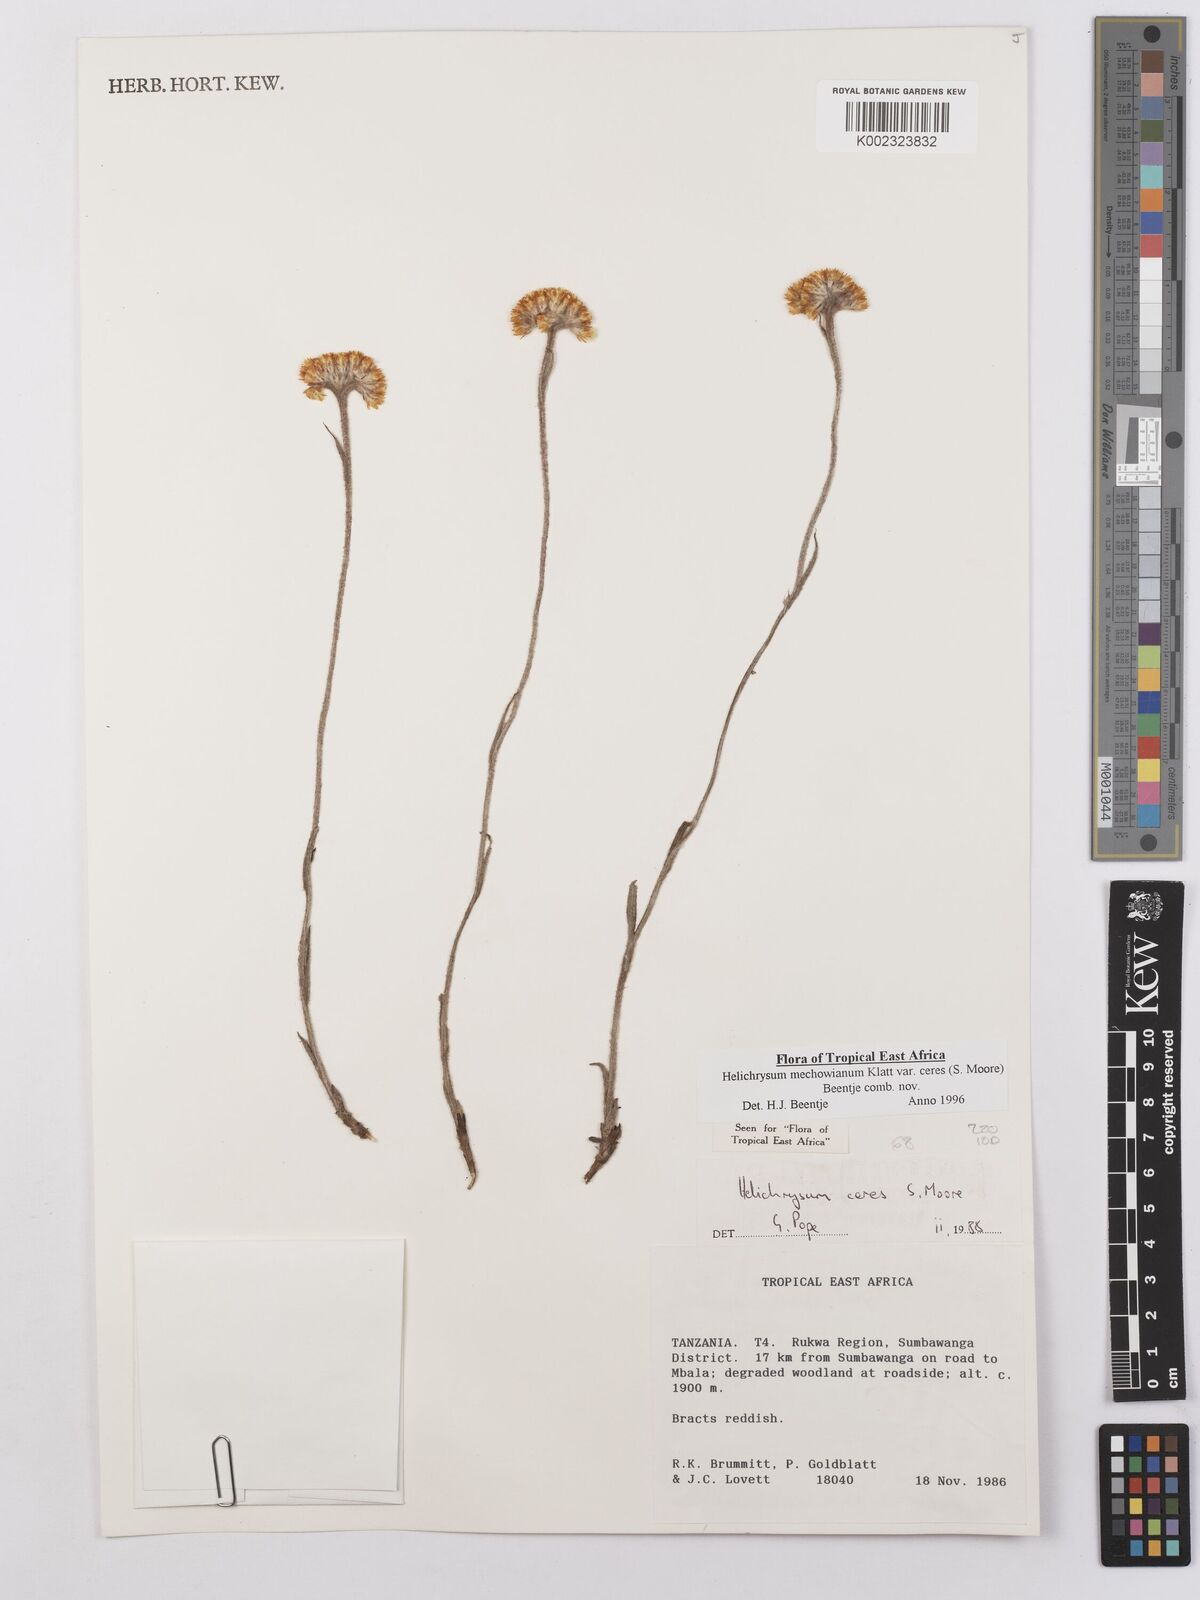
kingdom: Plantae
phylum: Tracheophyta
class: Magnoliopsida
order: Asterales
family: Asteraceae
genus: Helichrysum
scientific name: Helichrysum mechowianum
